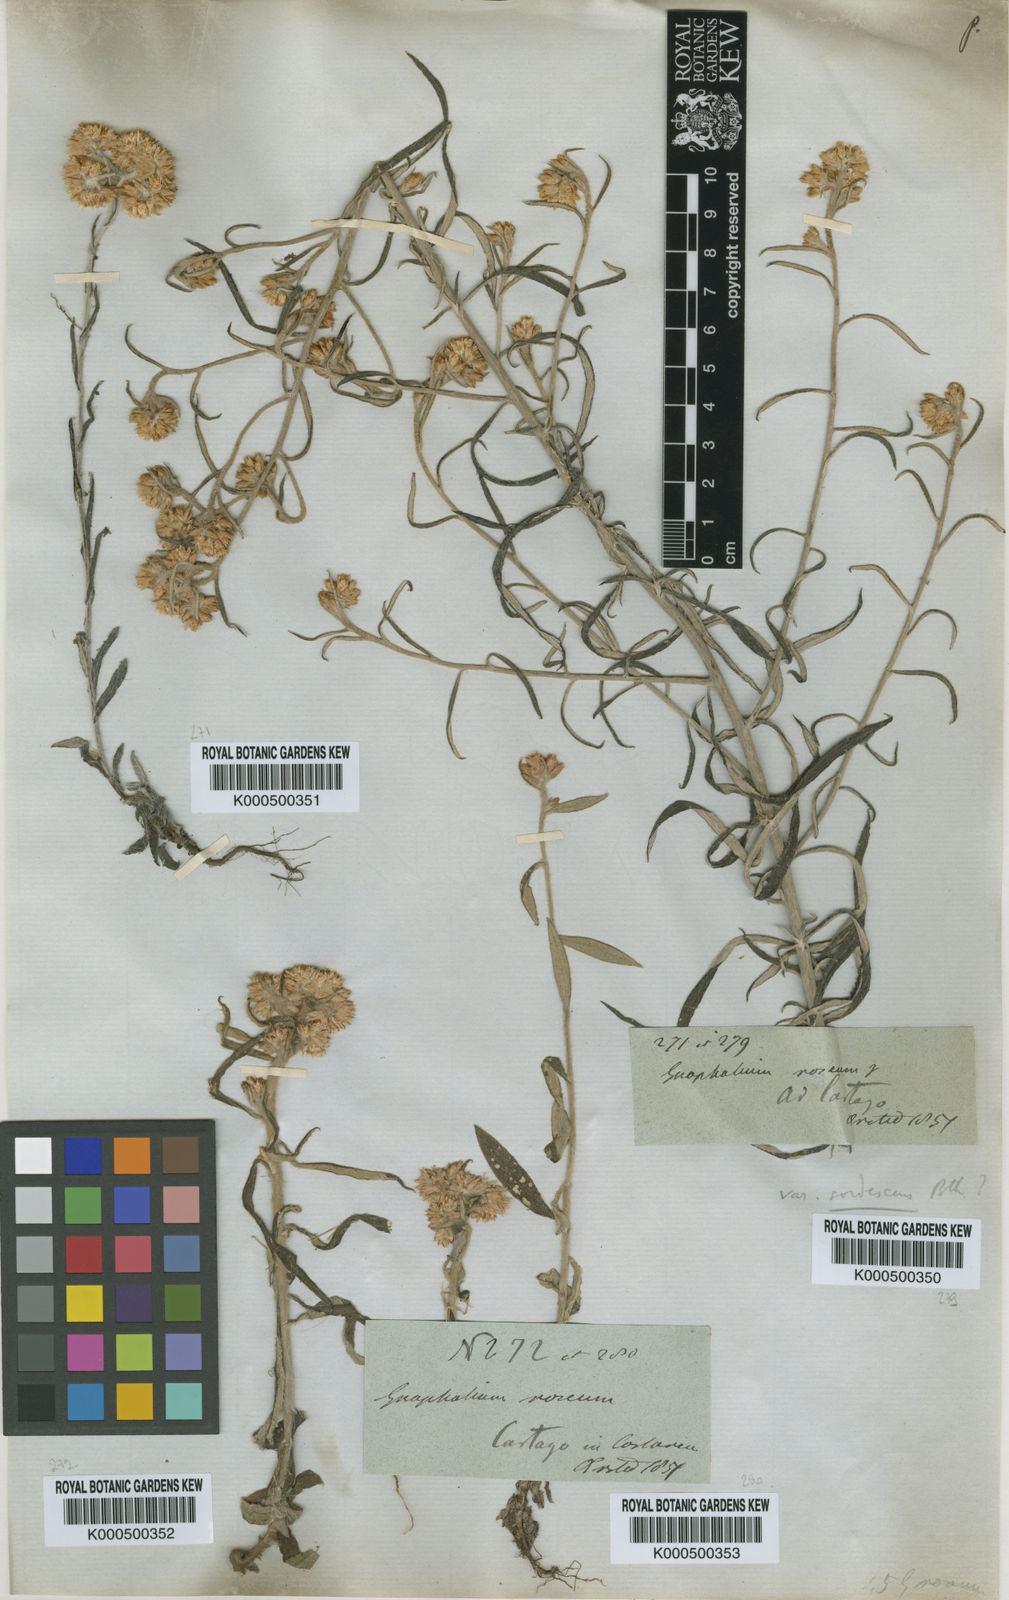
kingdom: Plantae
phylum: Tracheophyta
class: Magnoliopsida
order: Asterales
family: Asteraceae
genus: Pseudognaphalium
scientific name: Pseudognaphalium attenuatum
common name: Tapered cudweed
